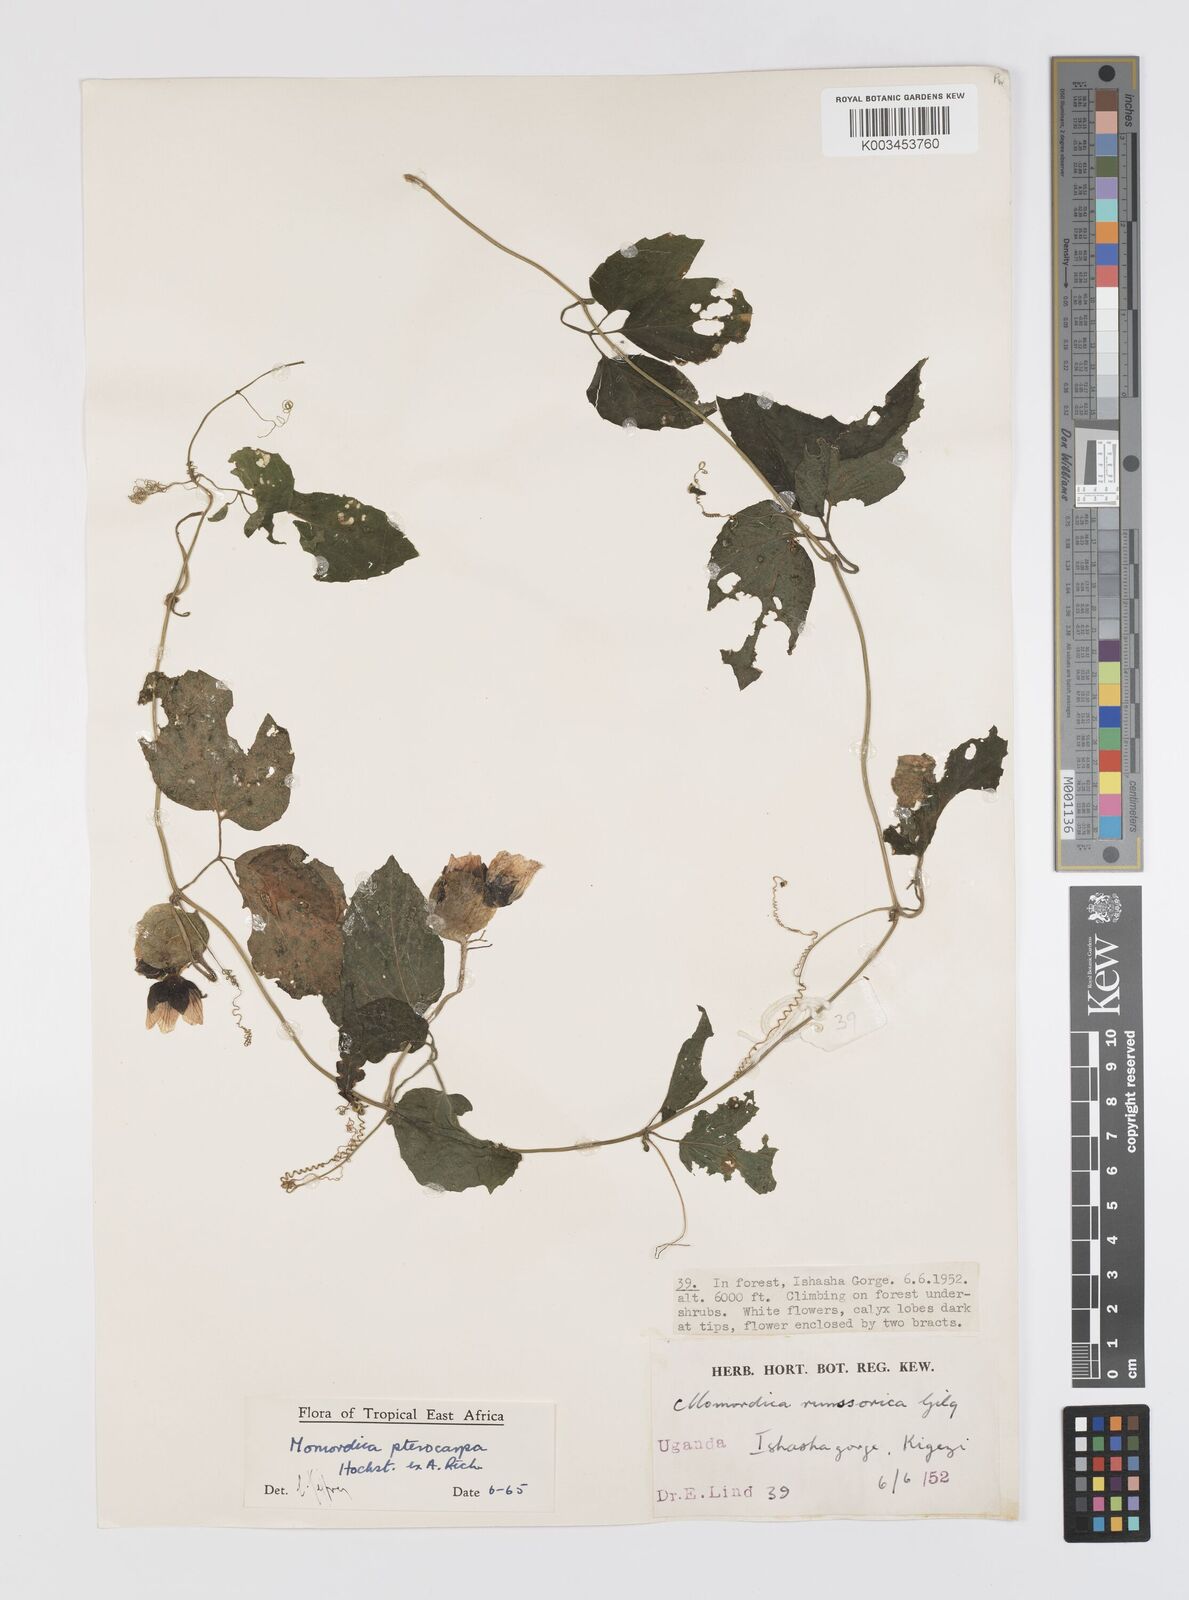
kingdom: Plantae
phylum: Tracheophyta
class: Magnoliopsida
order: Cucurbitales
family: Cucurbitaceae
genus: Momordica
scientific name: Momordica pterocarpa
